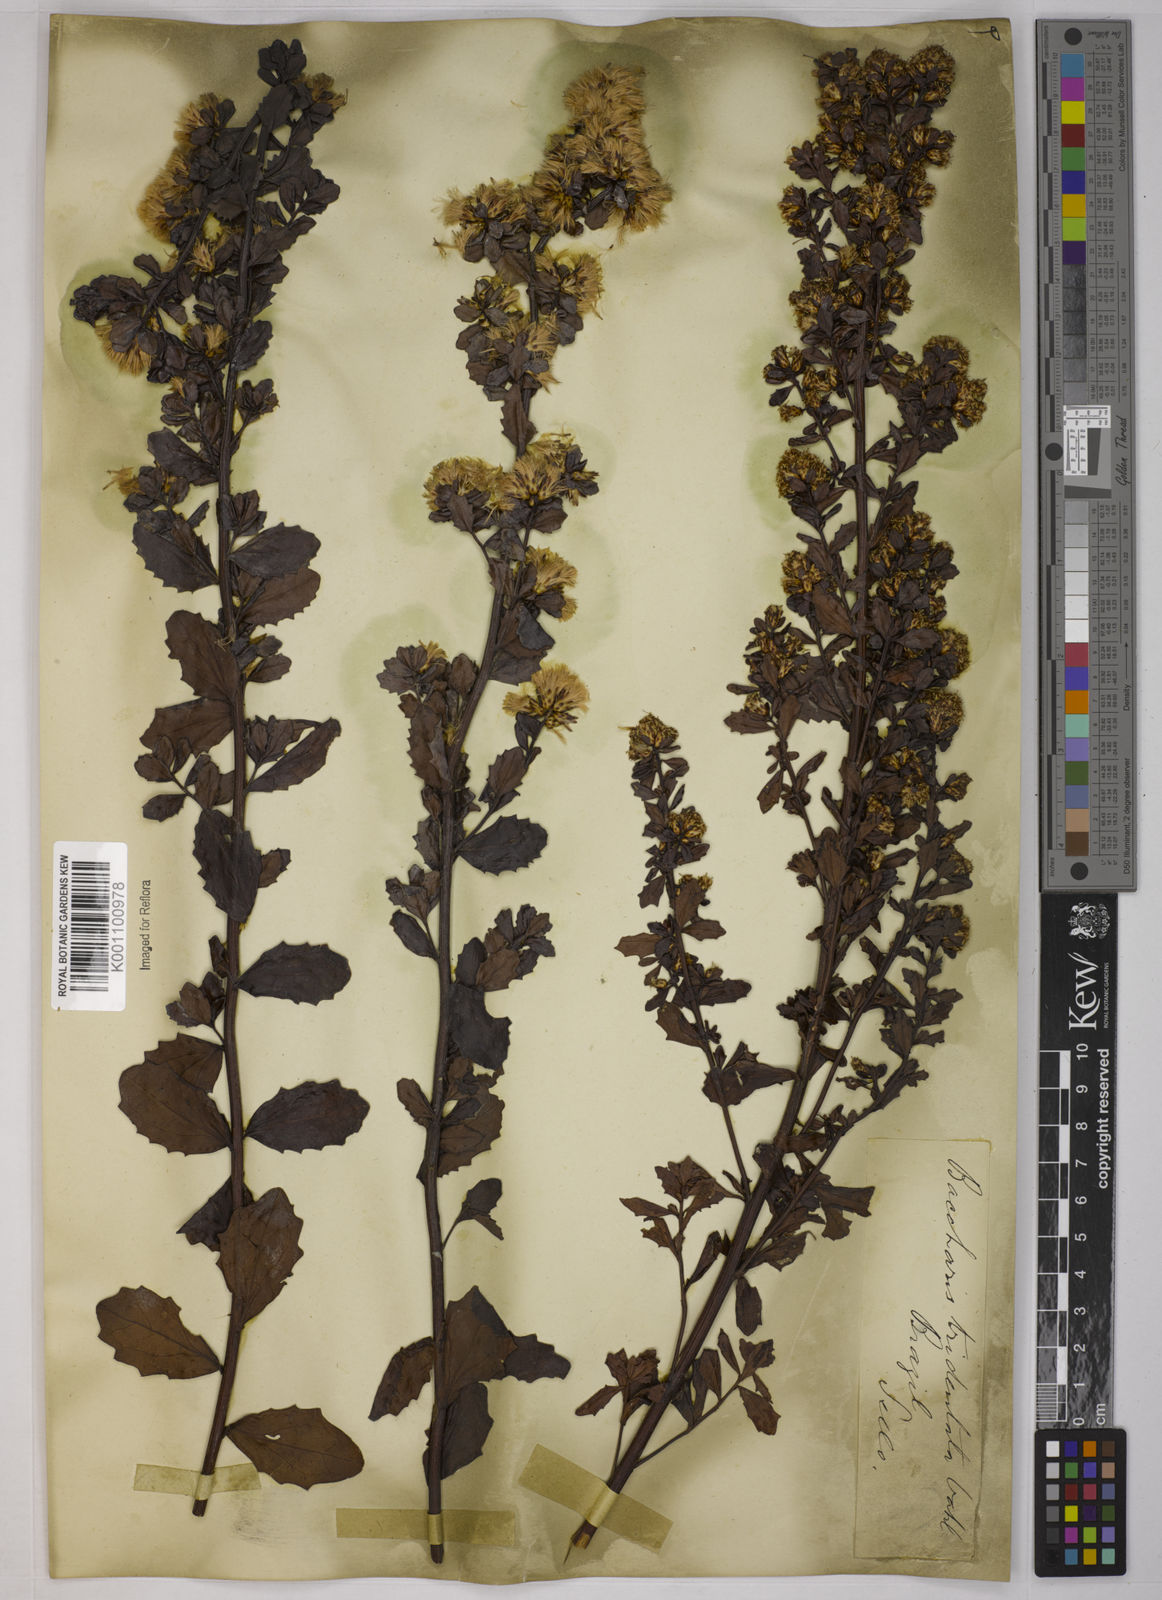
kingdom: Plantae
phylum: Tracheophyta
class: Magnoliopsida
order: Asterales
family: Asteraceae
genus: Baccharis
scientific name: Baccharis tridentata
